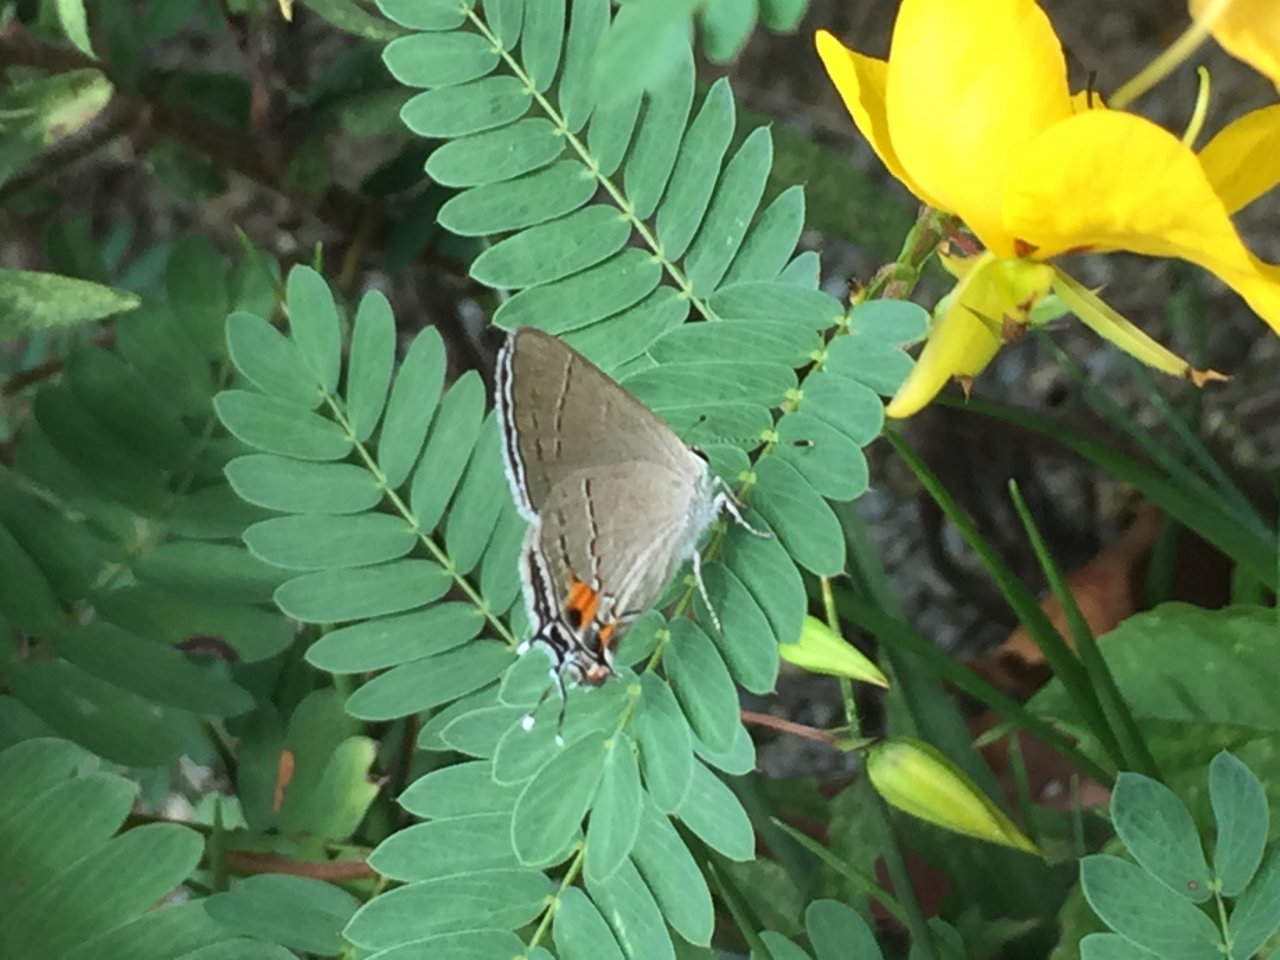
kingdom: Animalia
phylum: Arthropoda
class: Insecta
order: Lepidoptera
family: Lycaenidae
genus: Strymon
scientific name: Strymon melinus
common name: Gray Hairstreak
